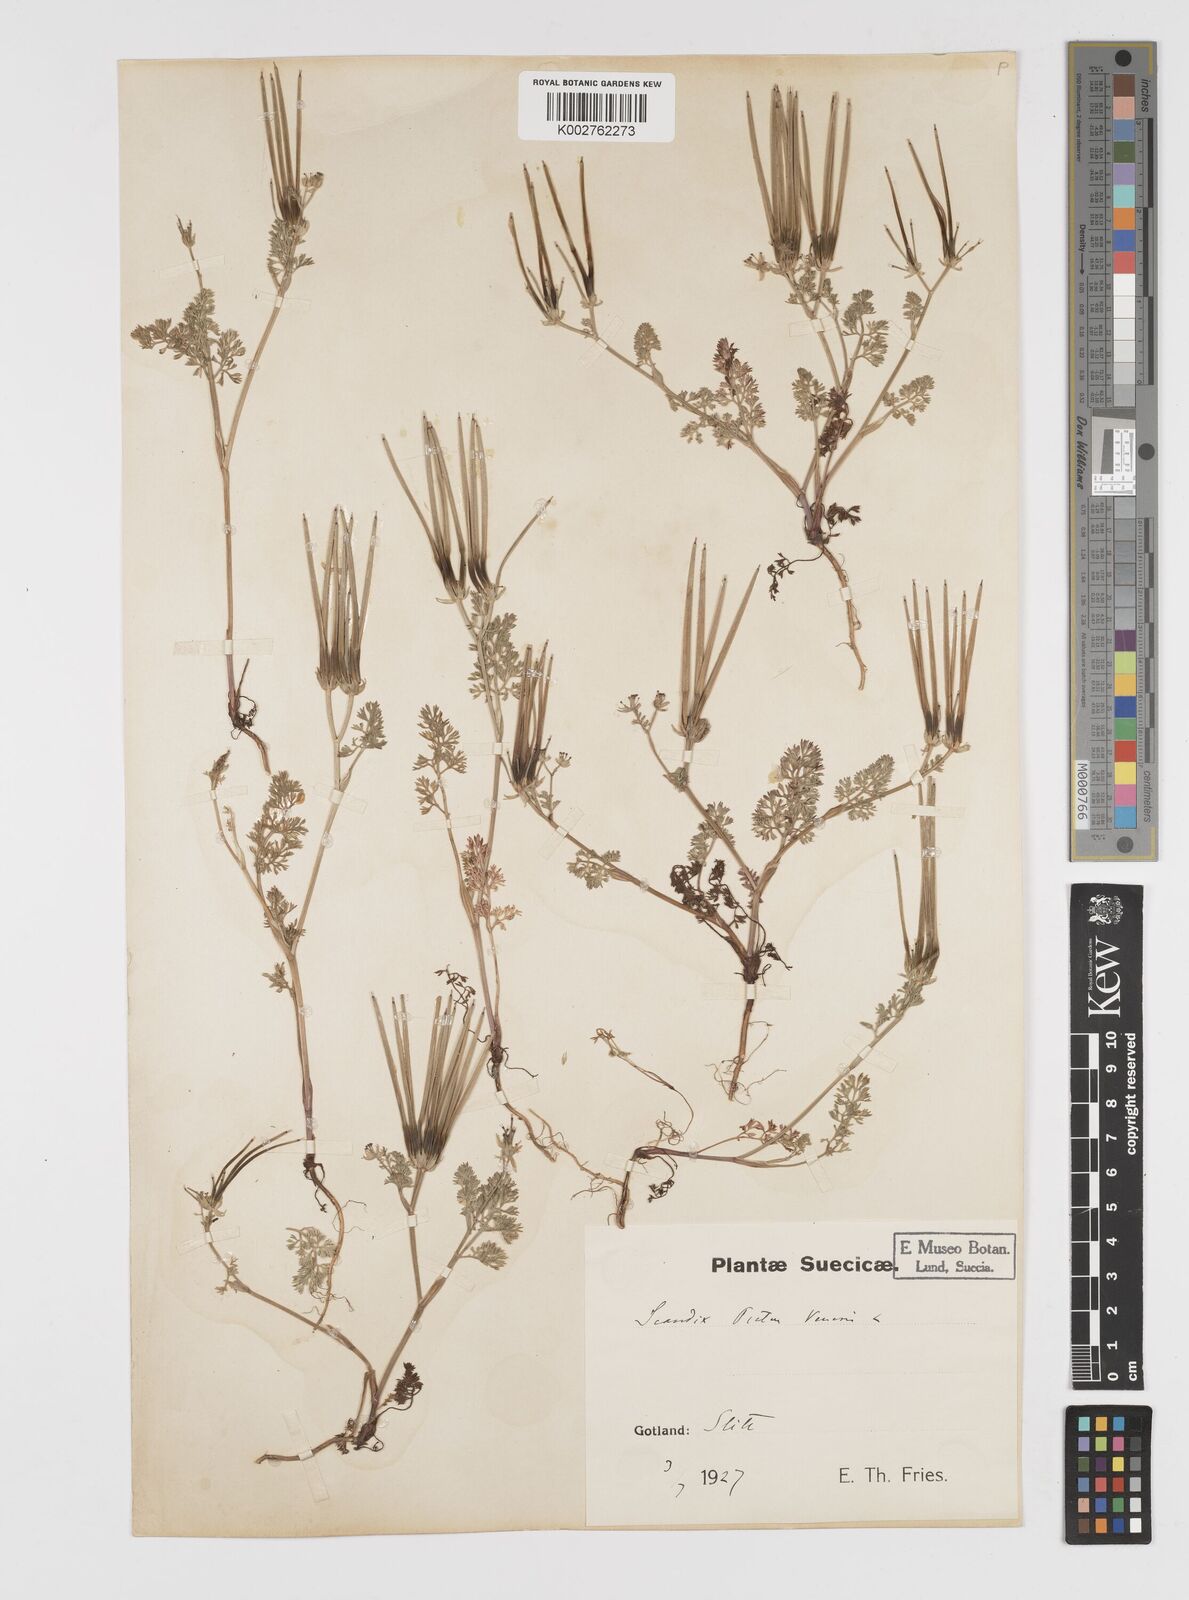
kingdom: Plantae
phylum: Tracheophyta
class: Magnoliopsida
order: Apiales
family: Apiaceae
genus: Scandix
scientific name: Scandix pecten-veneris
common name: Shepherd's-needle
